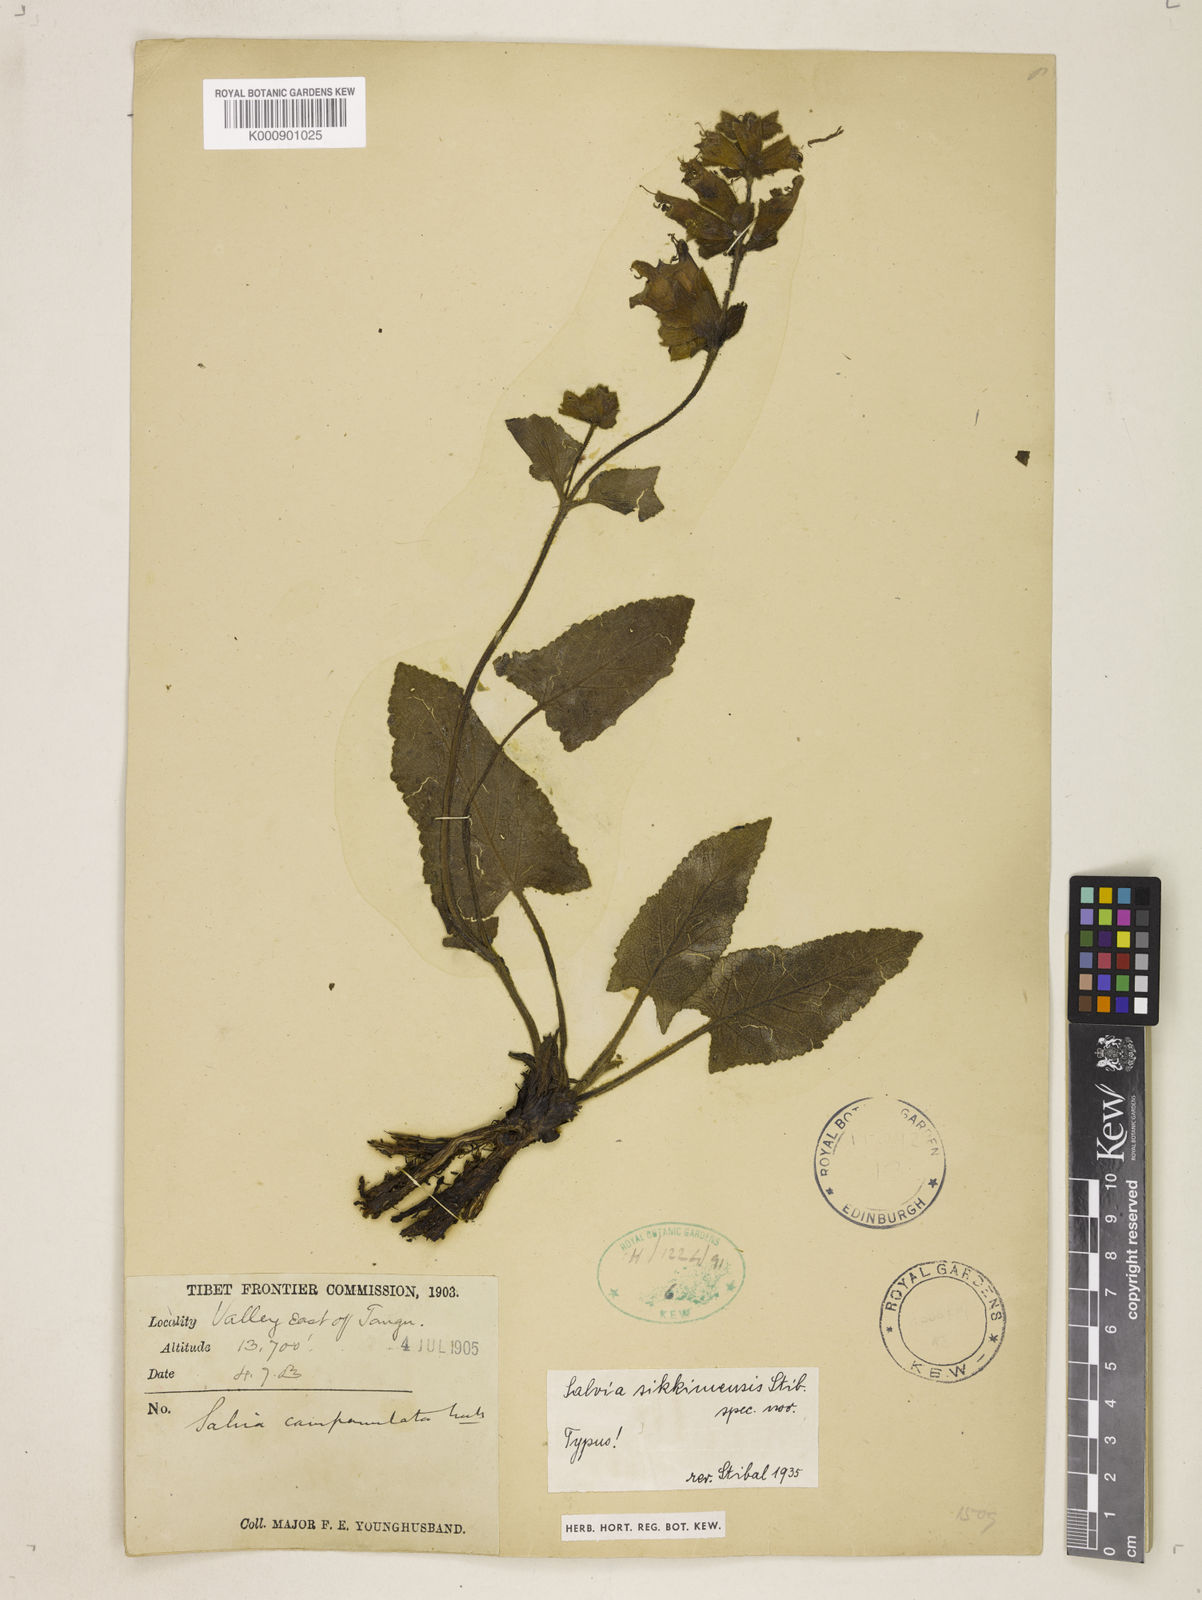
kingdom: Plantae
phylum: Tracheophyta
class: Magnoliopsida
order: Lamiales
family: Lamiaceae
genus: Salvia
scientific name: Salvia sikkimensis
